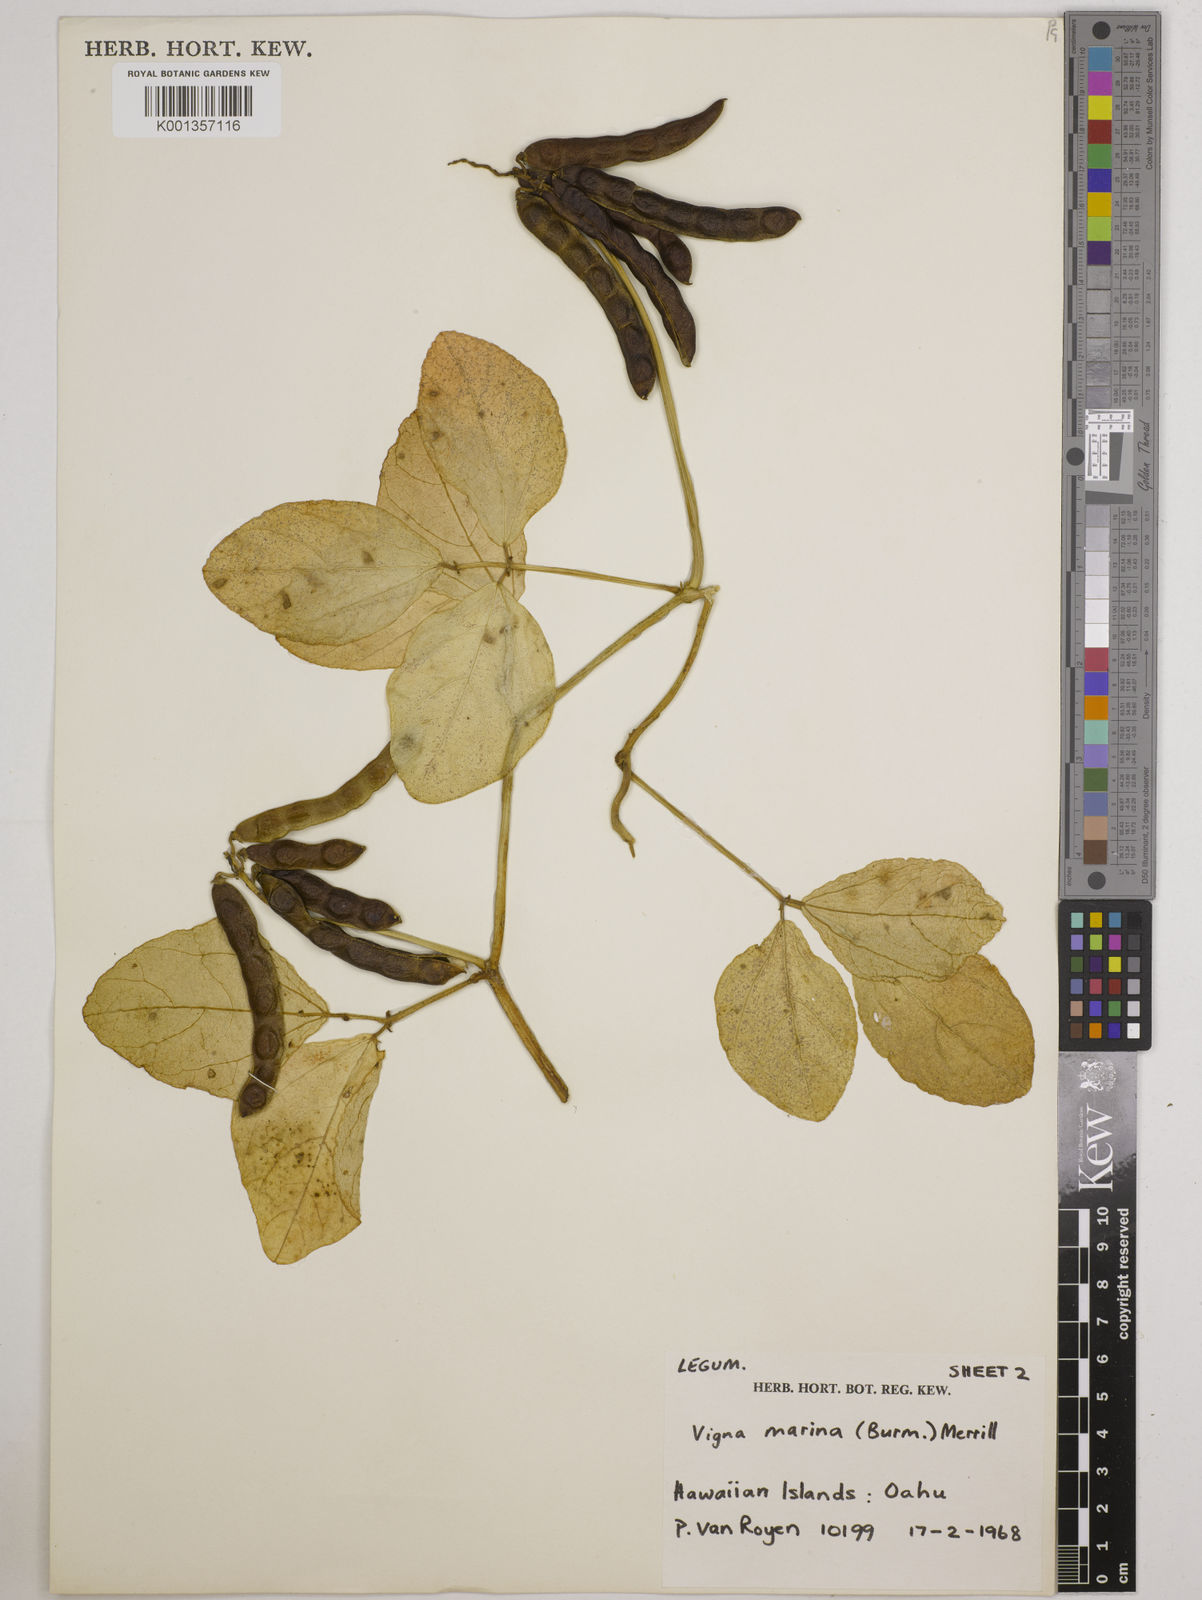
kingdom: Plantae
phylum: Tracheophyta
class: Magnoliopsida
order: Fabales
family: Fabaceae
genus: Vigna
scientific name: Vigna marina
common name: Dune-bean
